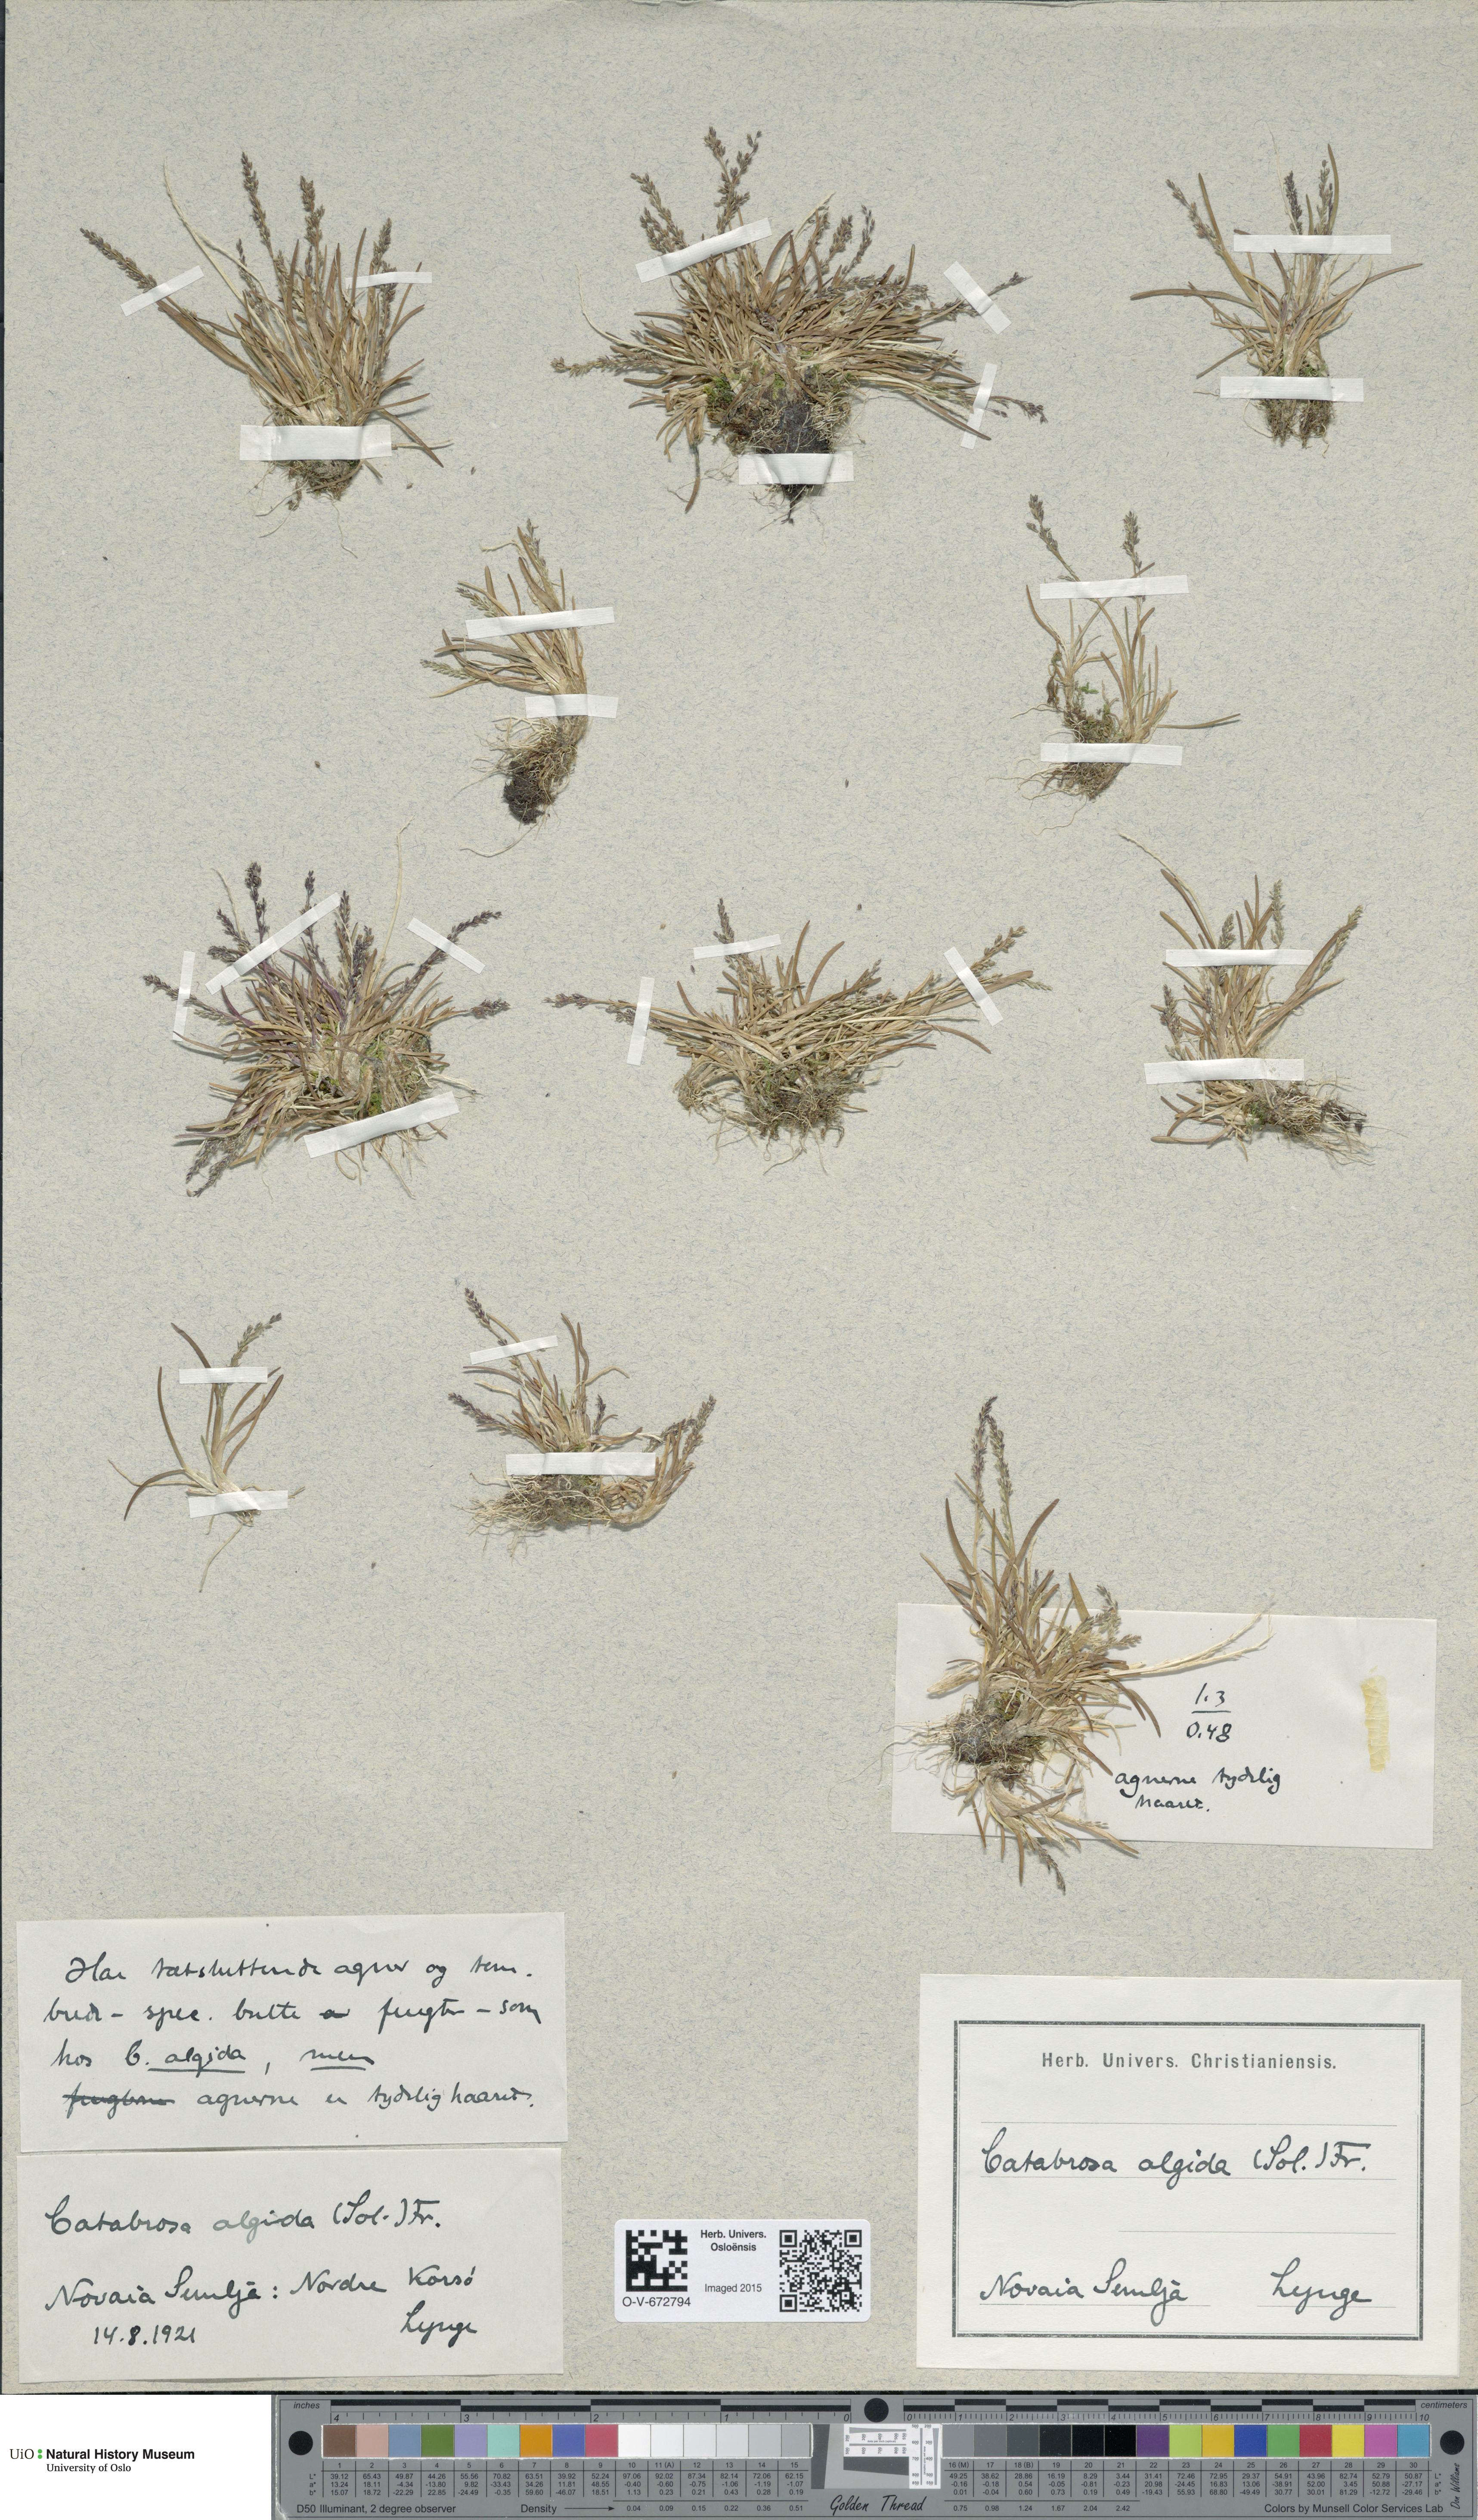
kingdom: Plantae
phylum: Tracheophyta
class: Liliopsida
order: Poales
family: Poaceae
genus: Phippsia
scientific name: Phippsia algida
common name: Ice grass
